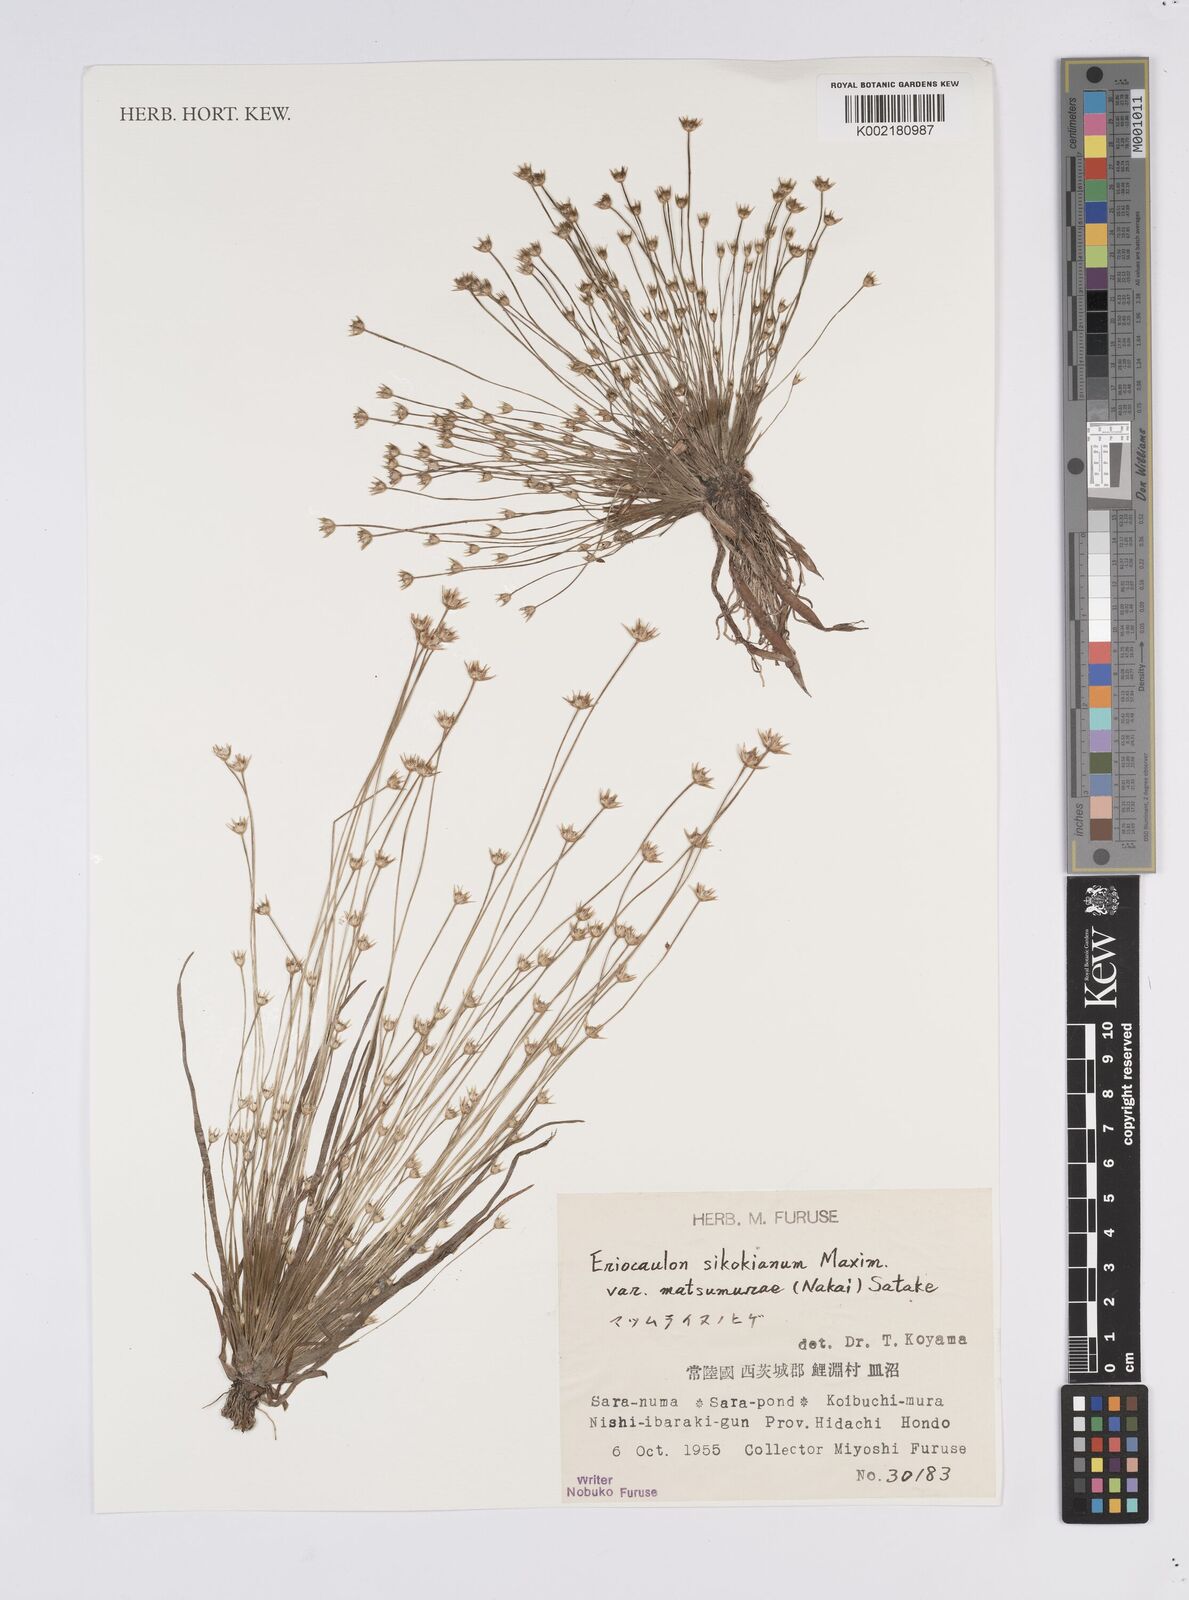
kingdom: Plantae
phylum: Tracheophyta
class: Liliopsida
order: Poales
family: Eriocaulaceae
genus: Eriocaulon
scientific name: Eriocaulon miquelianum
